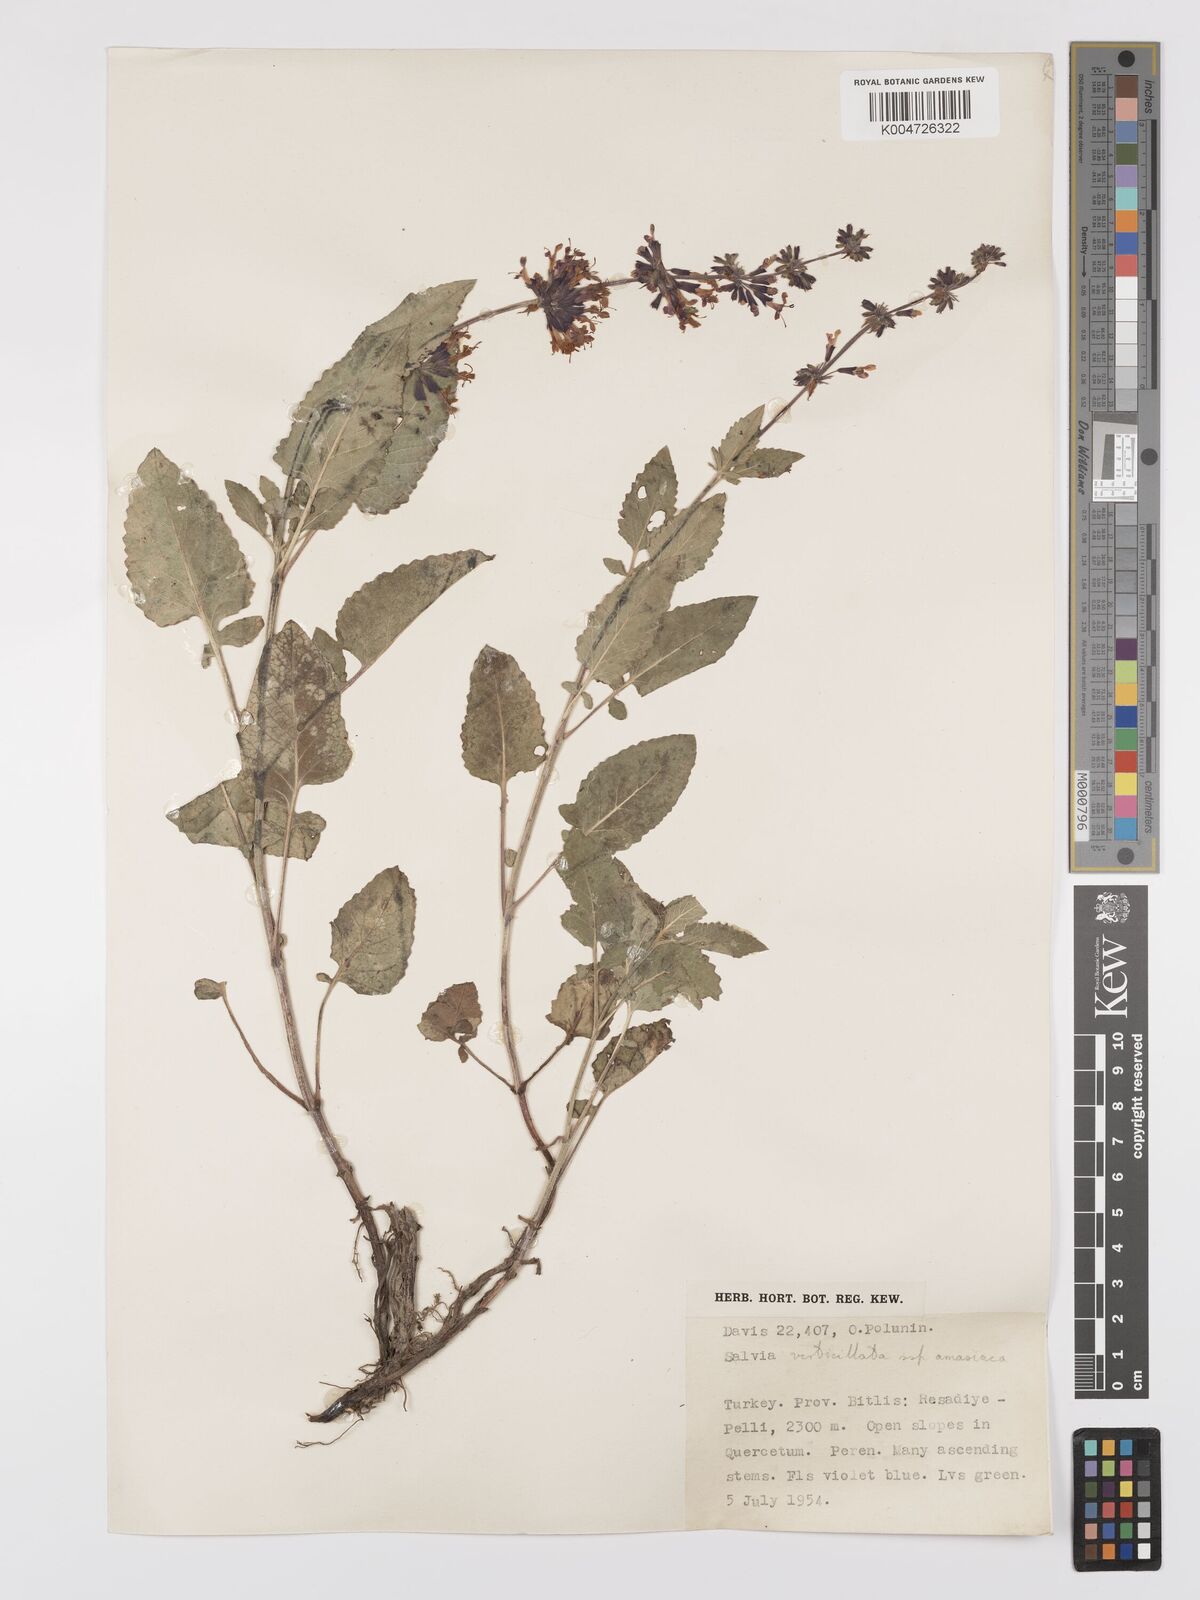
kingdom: Plantae
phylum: Tracheophyta
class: Magnoliopsida
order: Lamiales
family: Lamiaceae
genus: Salvia
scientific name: Salvia verticillata
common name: Whorled clary
